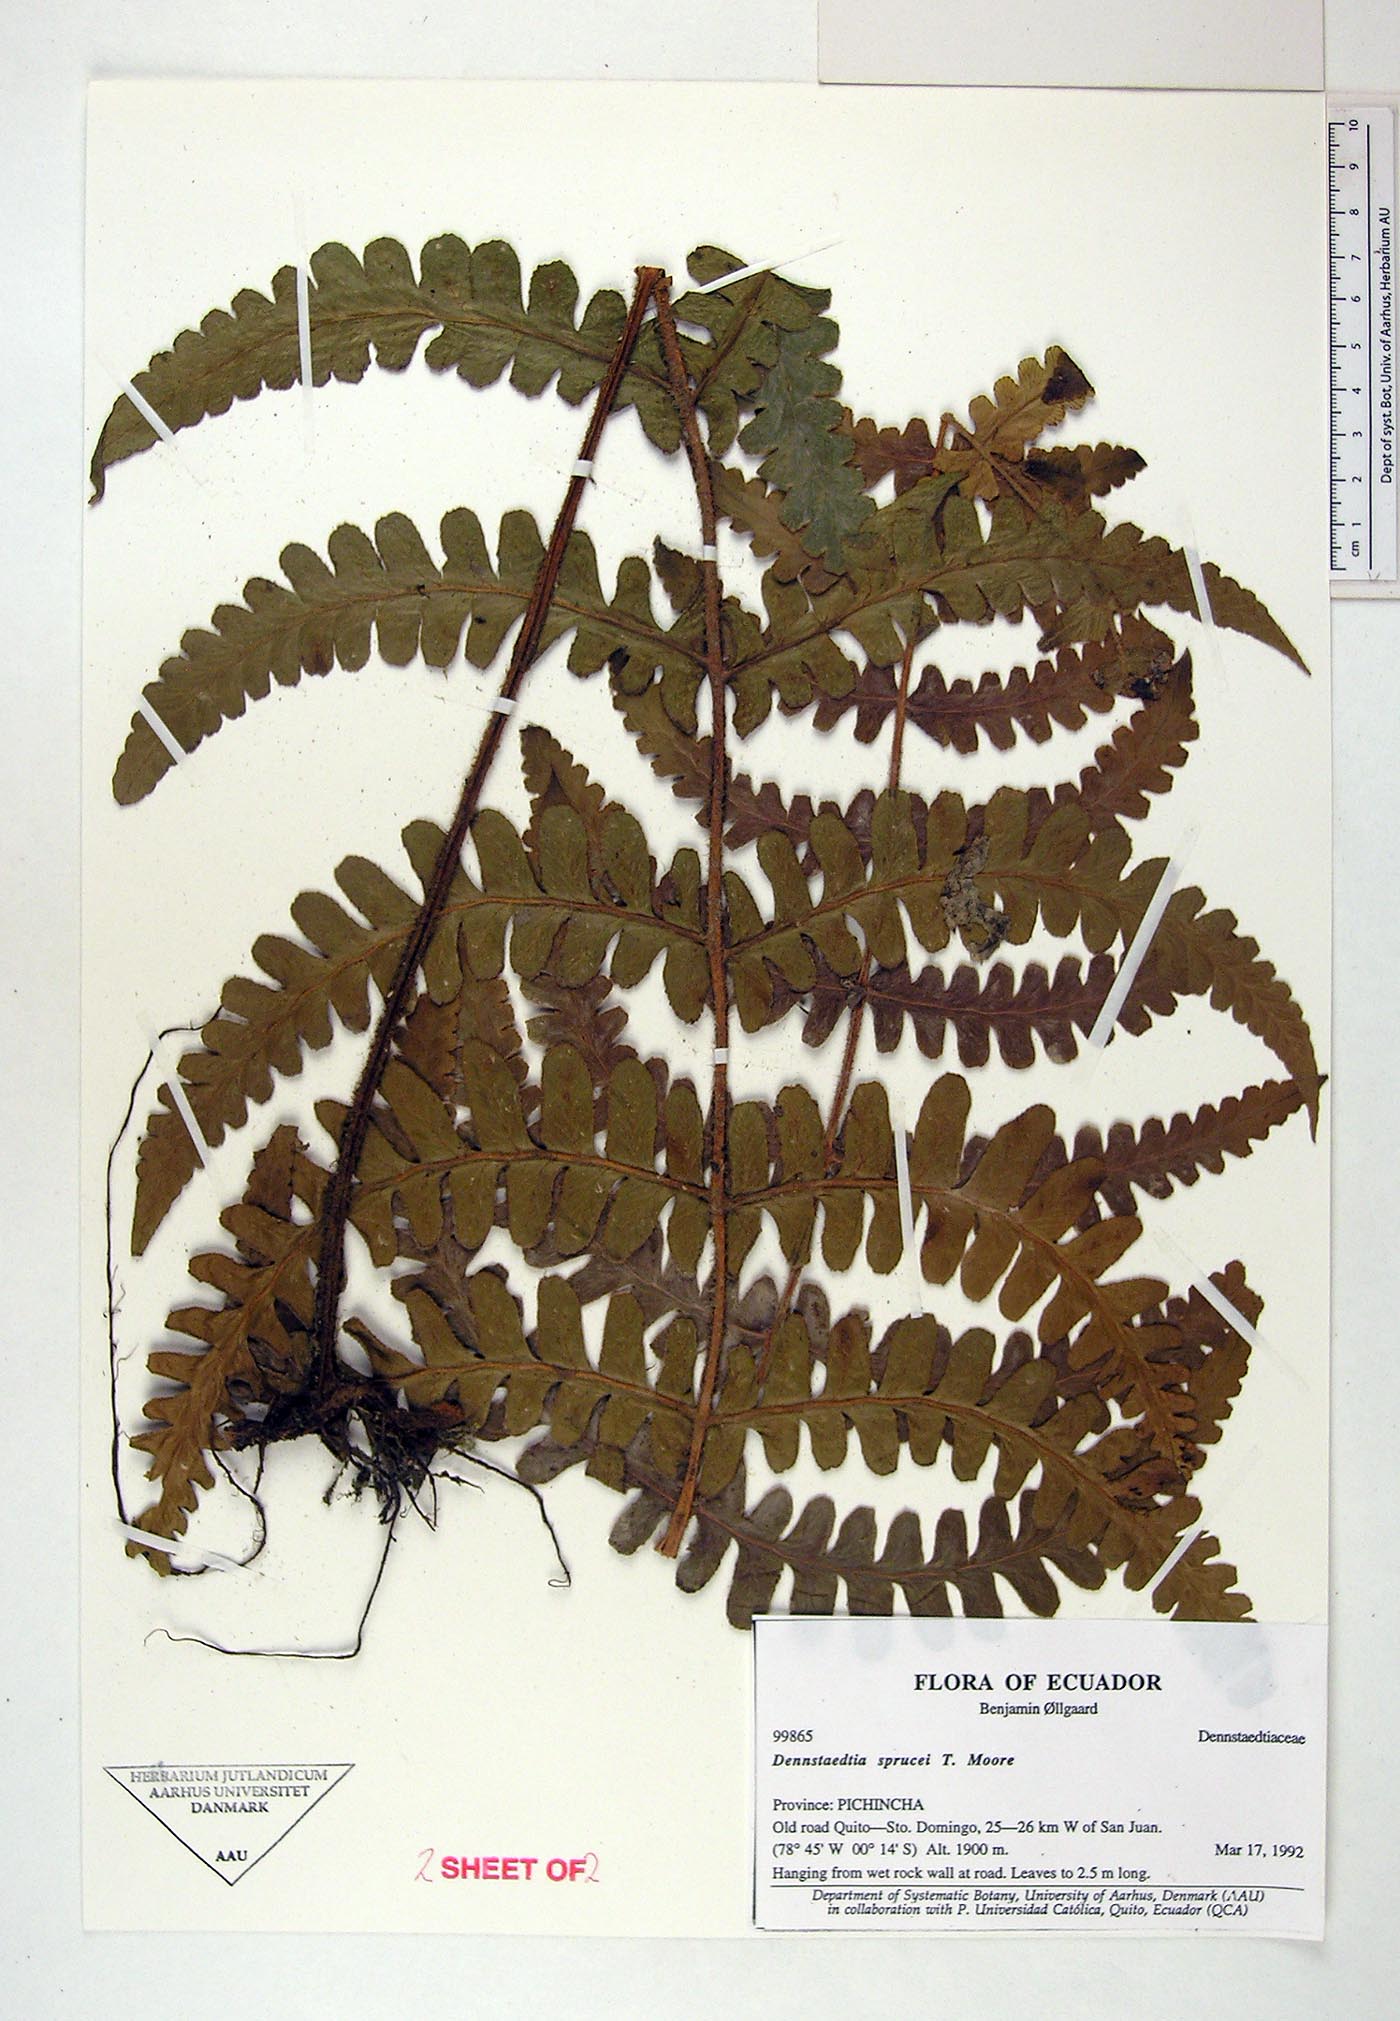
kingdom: Plantae
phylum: Tracheophyta
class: Polypodiopsida
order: Polypodiales
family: Dennstaedtiaceae
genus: Dennstaedtia
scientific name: Dennstaedtia sprucei
